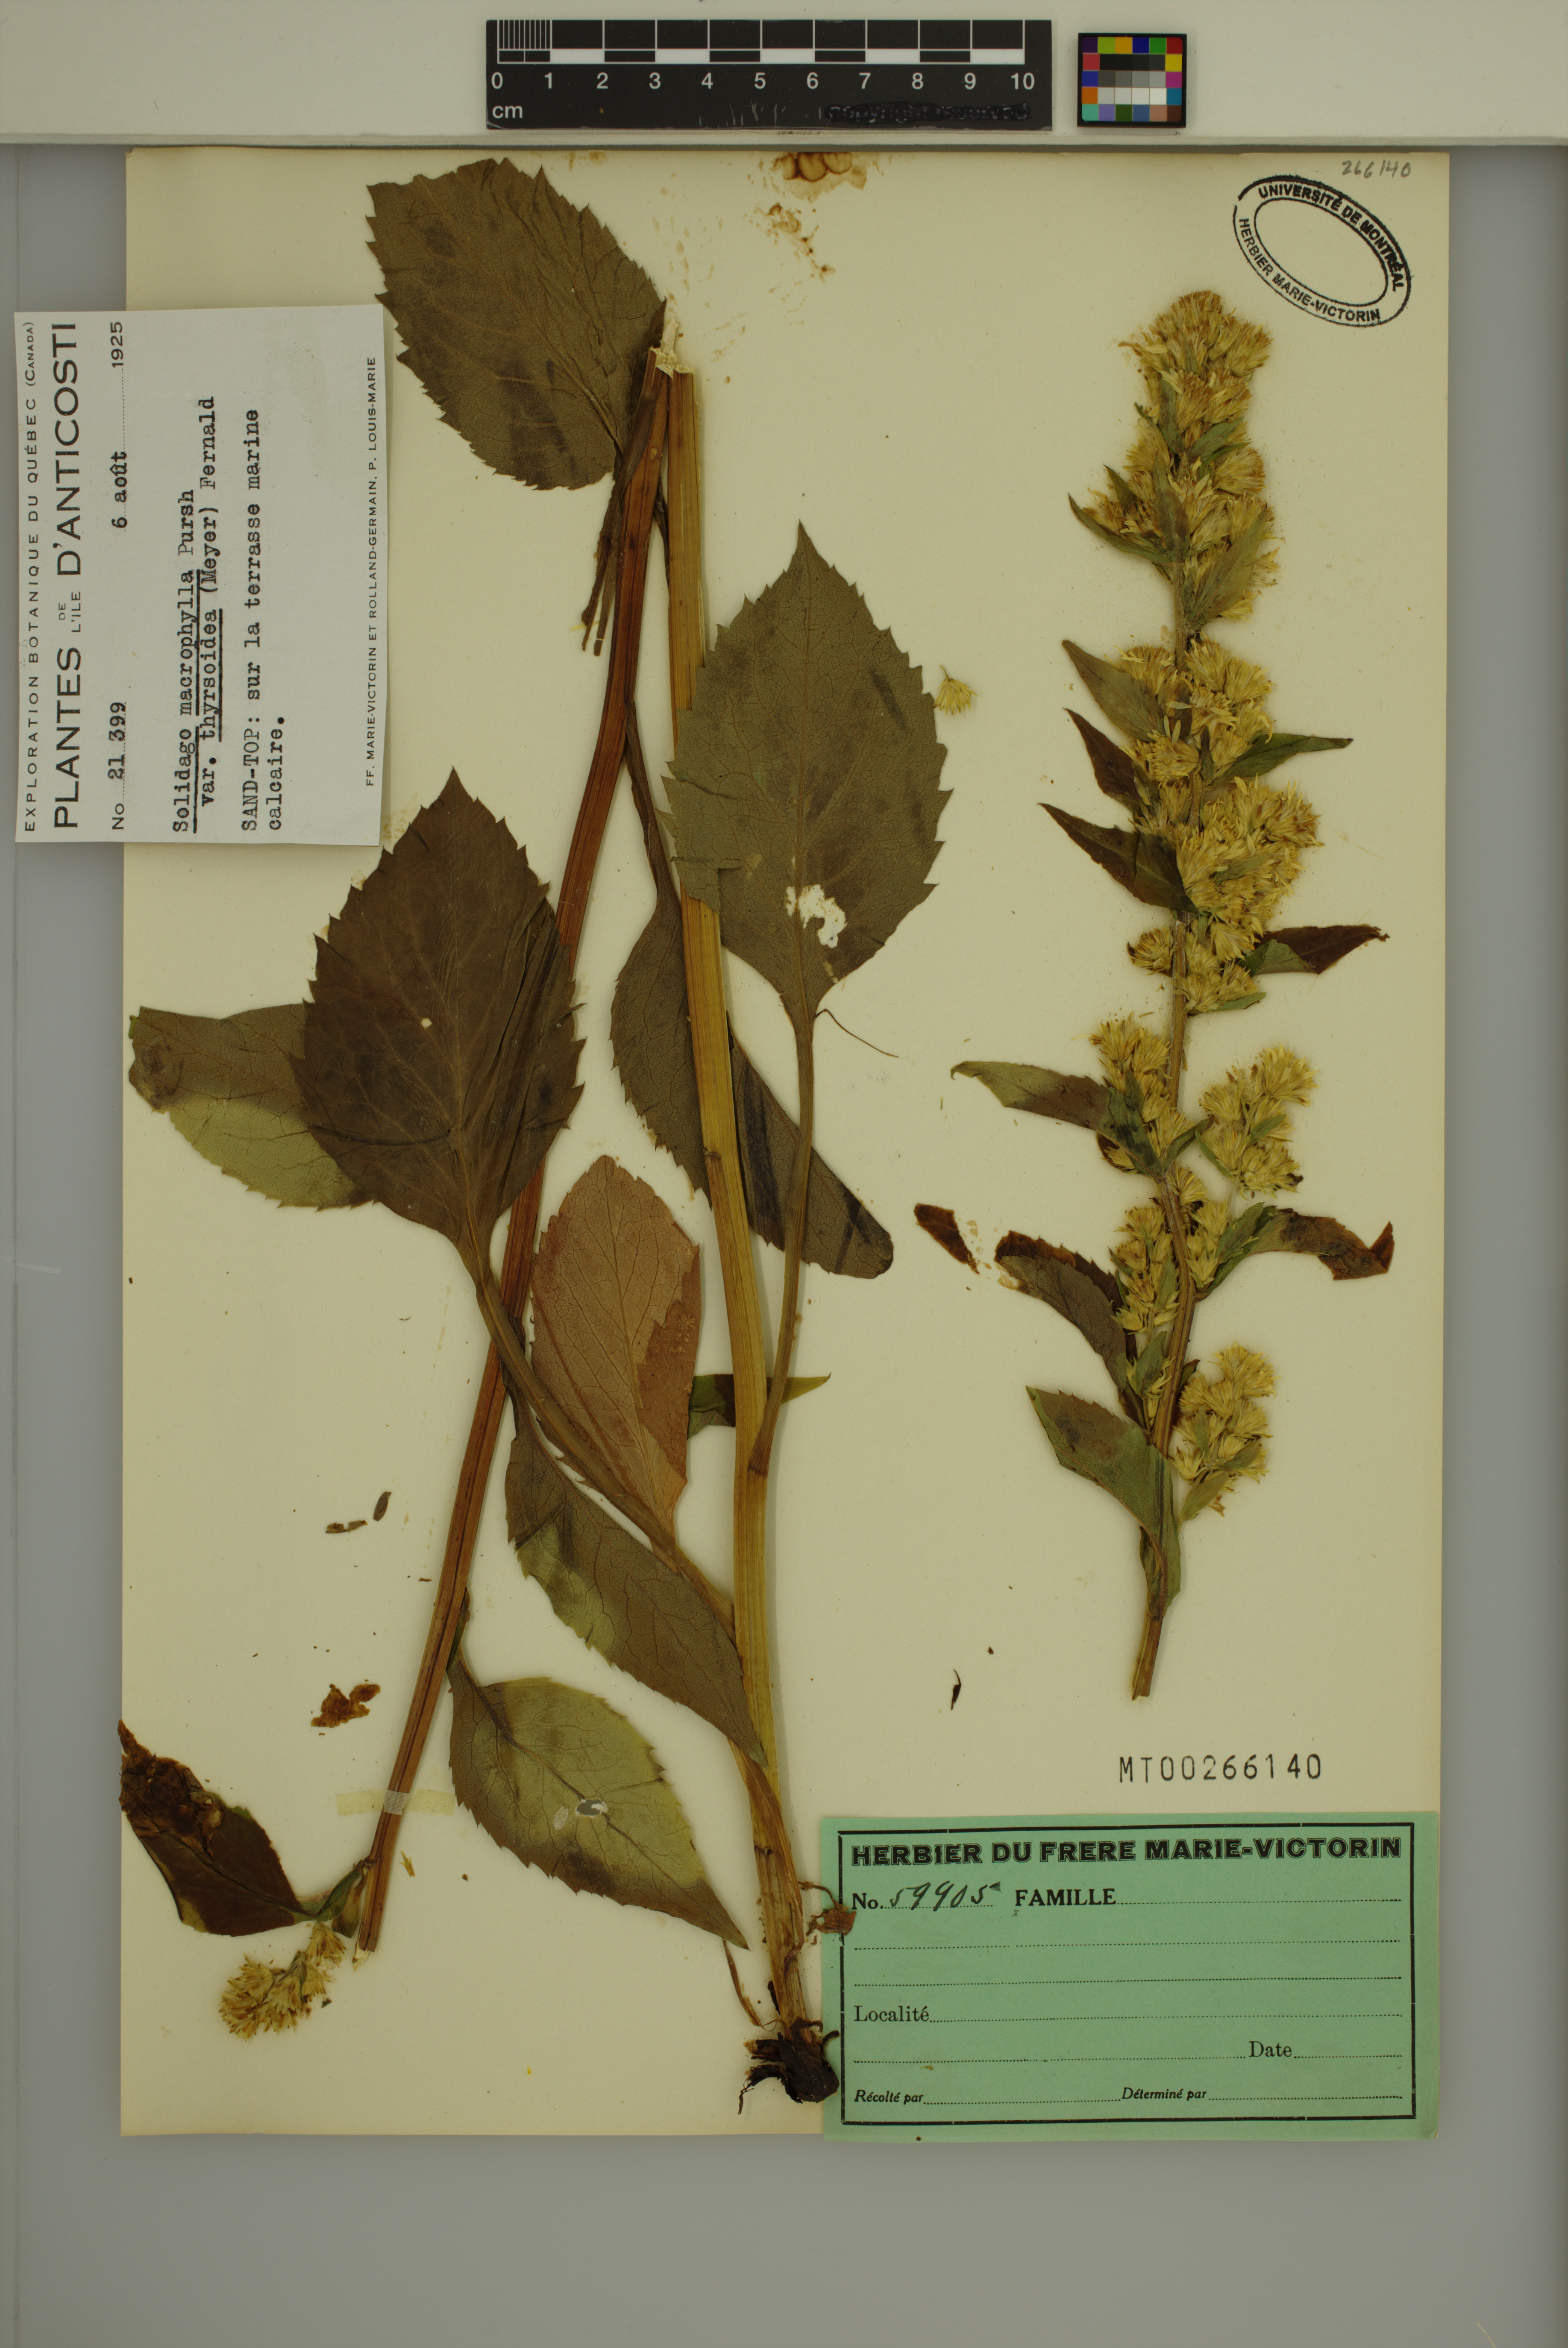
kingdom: Plantae
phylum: Tracheophyta
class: Magnoliopsida
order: Asterales
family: Asteraceae
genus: Solidago
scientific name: Solidago macrophylla
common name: Large-leaved goldenrod
